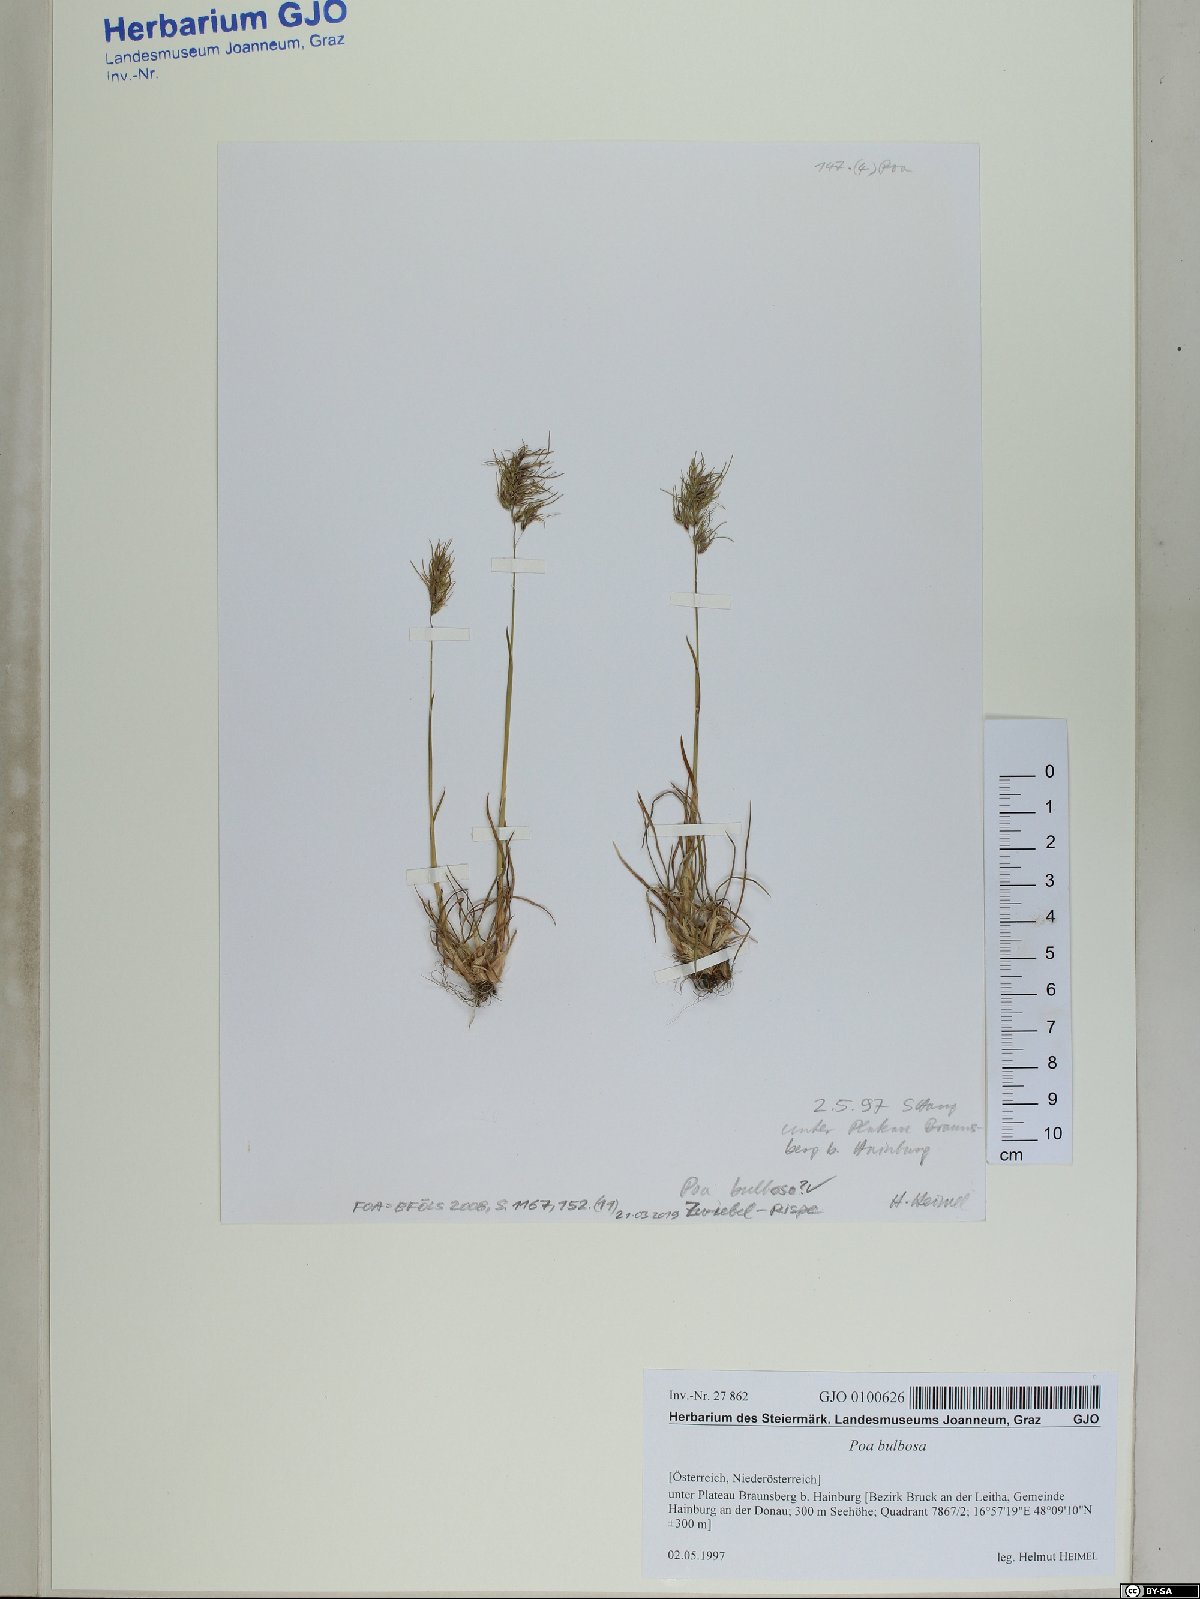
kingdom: Plantae
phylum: Tracheophyta
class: Liliopsida
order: Poales
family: Poaceae
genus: Poa
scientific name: Poa bulbosa
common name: Bulbous bluegrass
